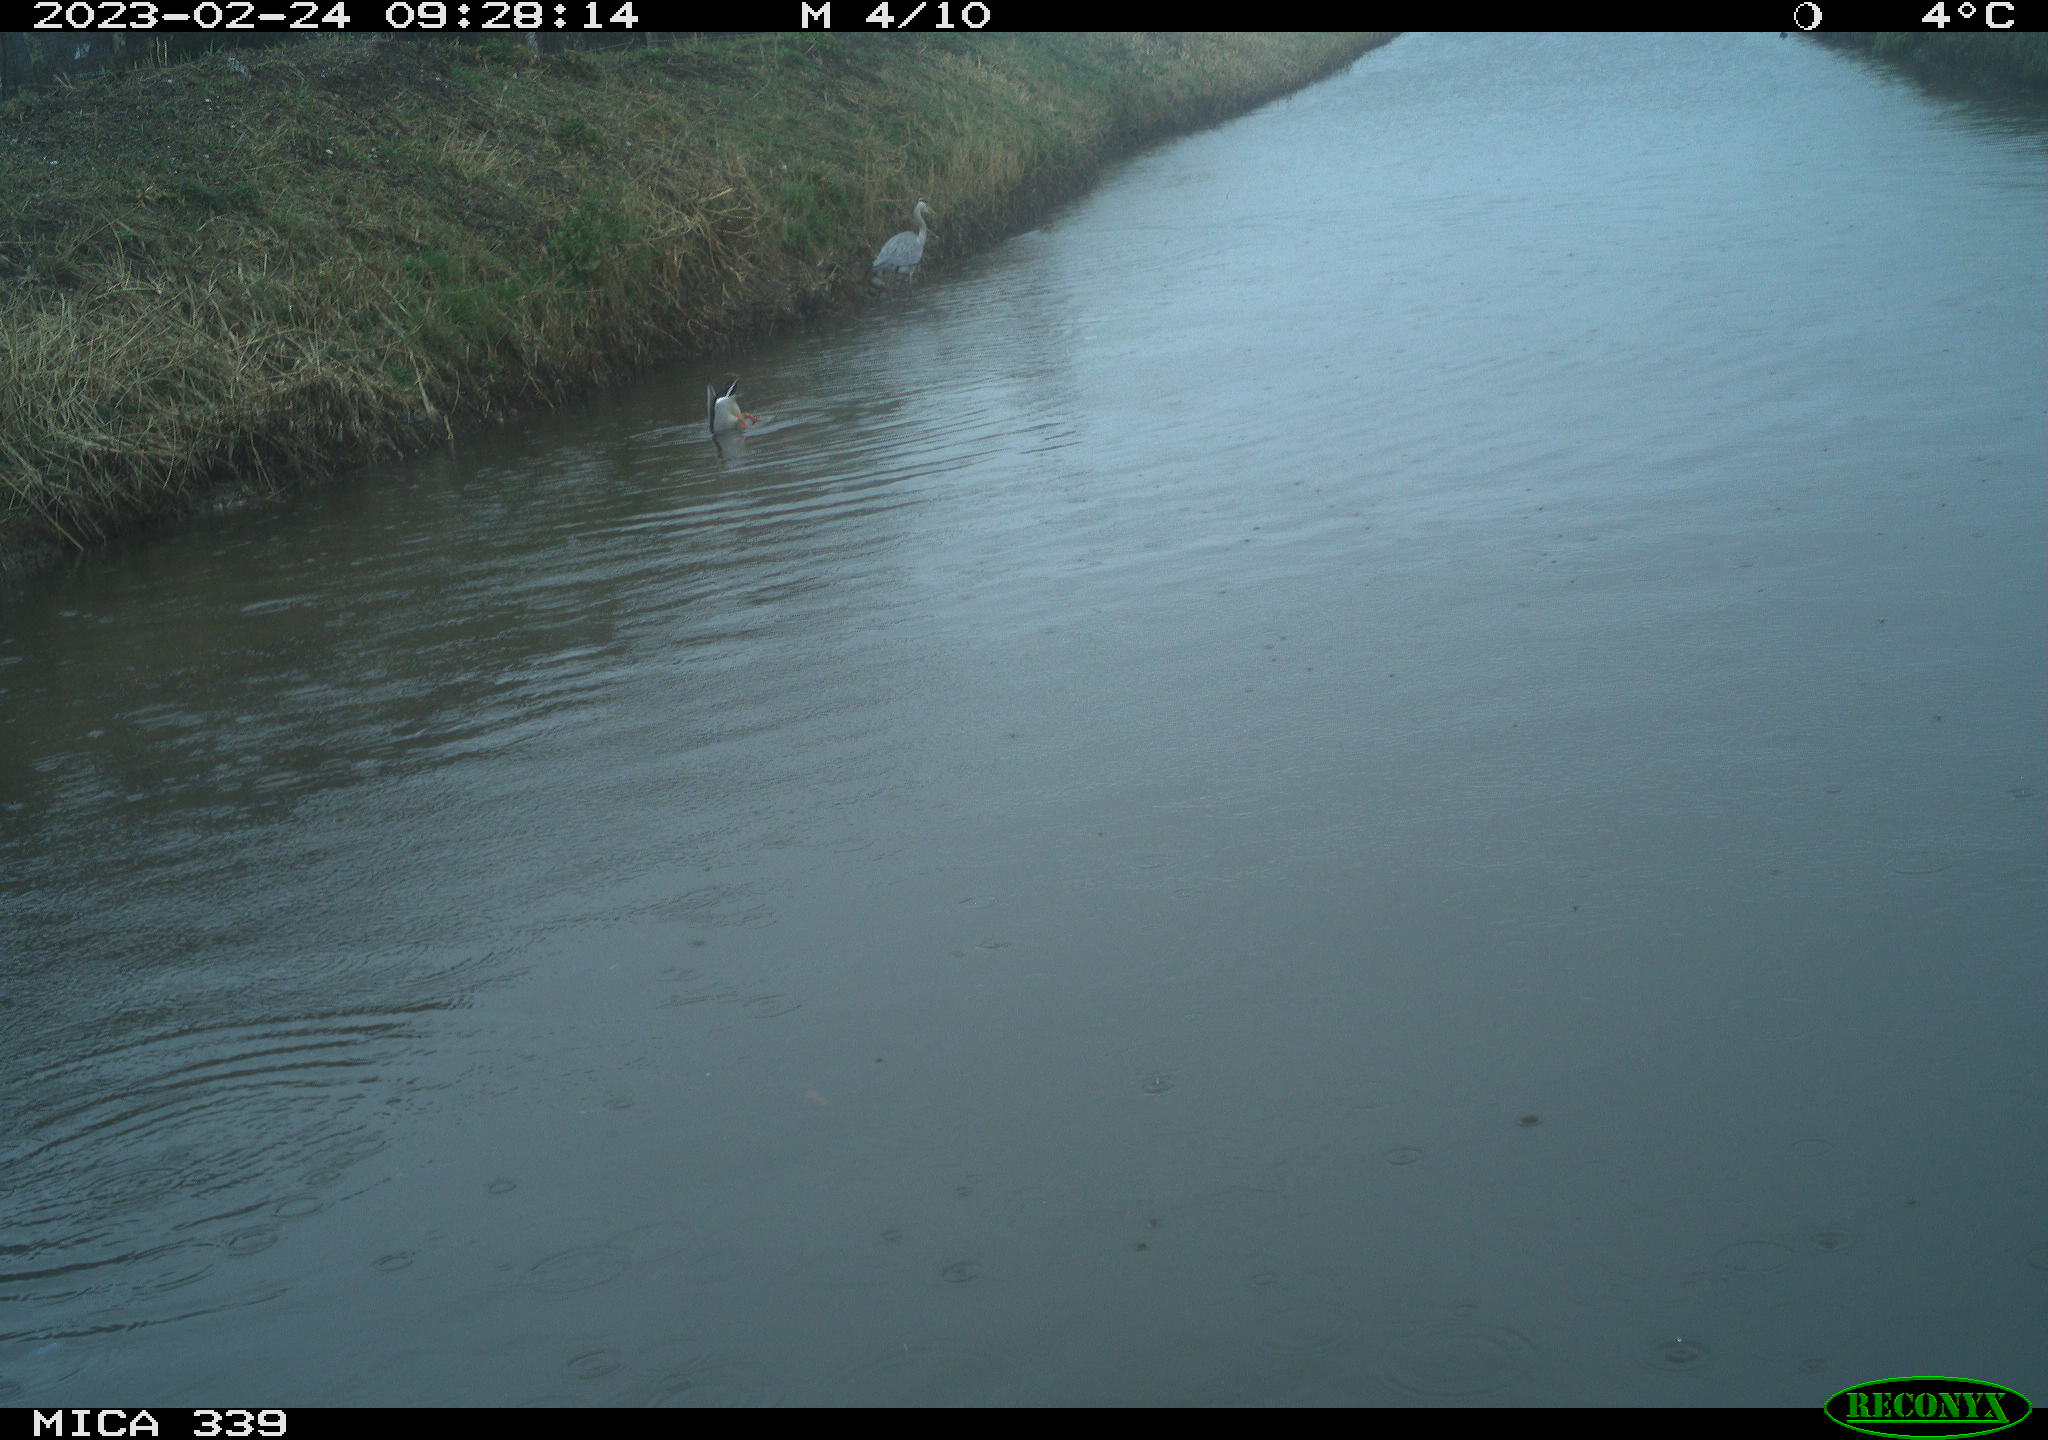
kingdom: Animalia
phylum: Chordata
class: Aves
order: Pelecaniformes
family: Ardeidae
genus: Ardea
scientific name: Ardea cinerea
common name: Grey heron
